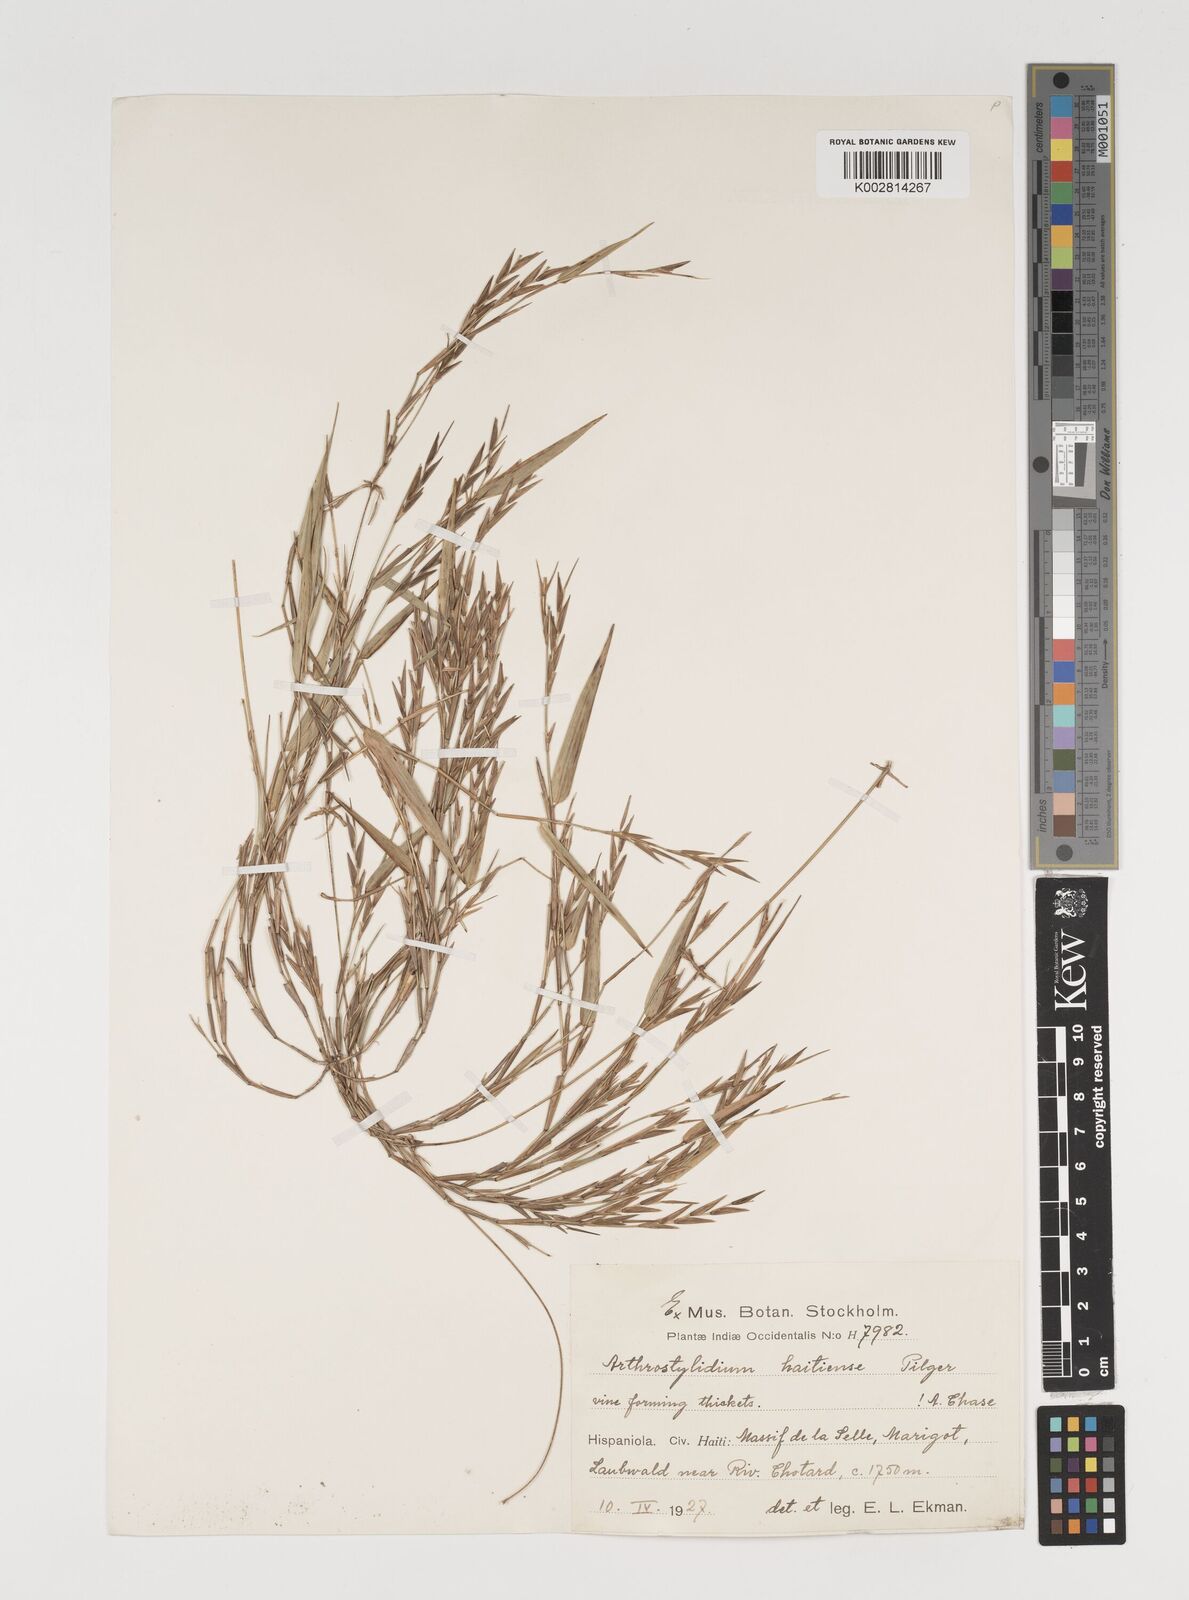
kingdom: Plantae
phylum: Tracheophyta
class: Liliopsida
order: Poales
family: Poaceae
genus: Arthrostylidium
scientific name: Arthrostylidium haitiense
